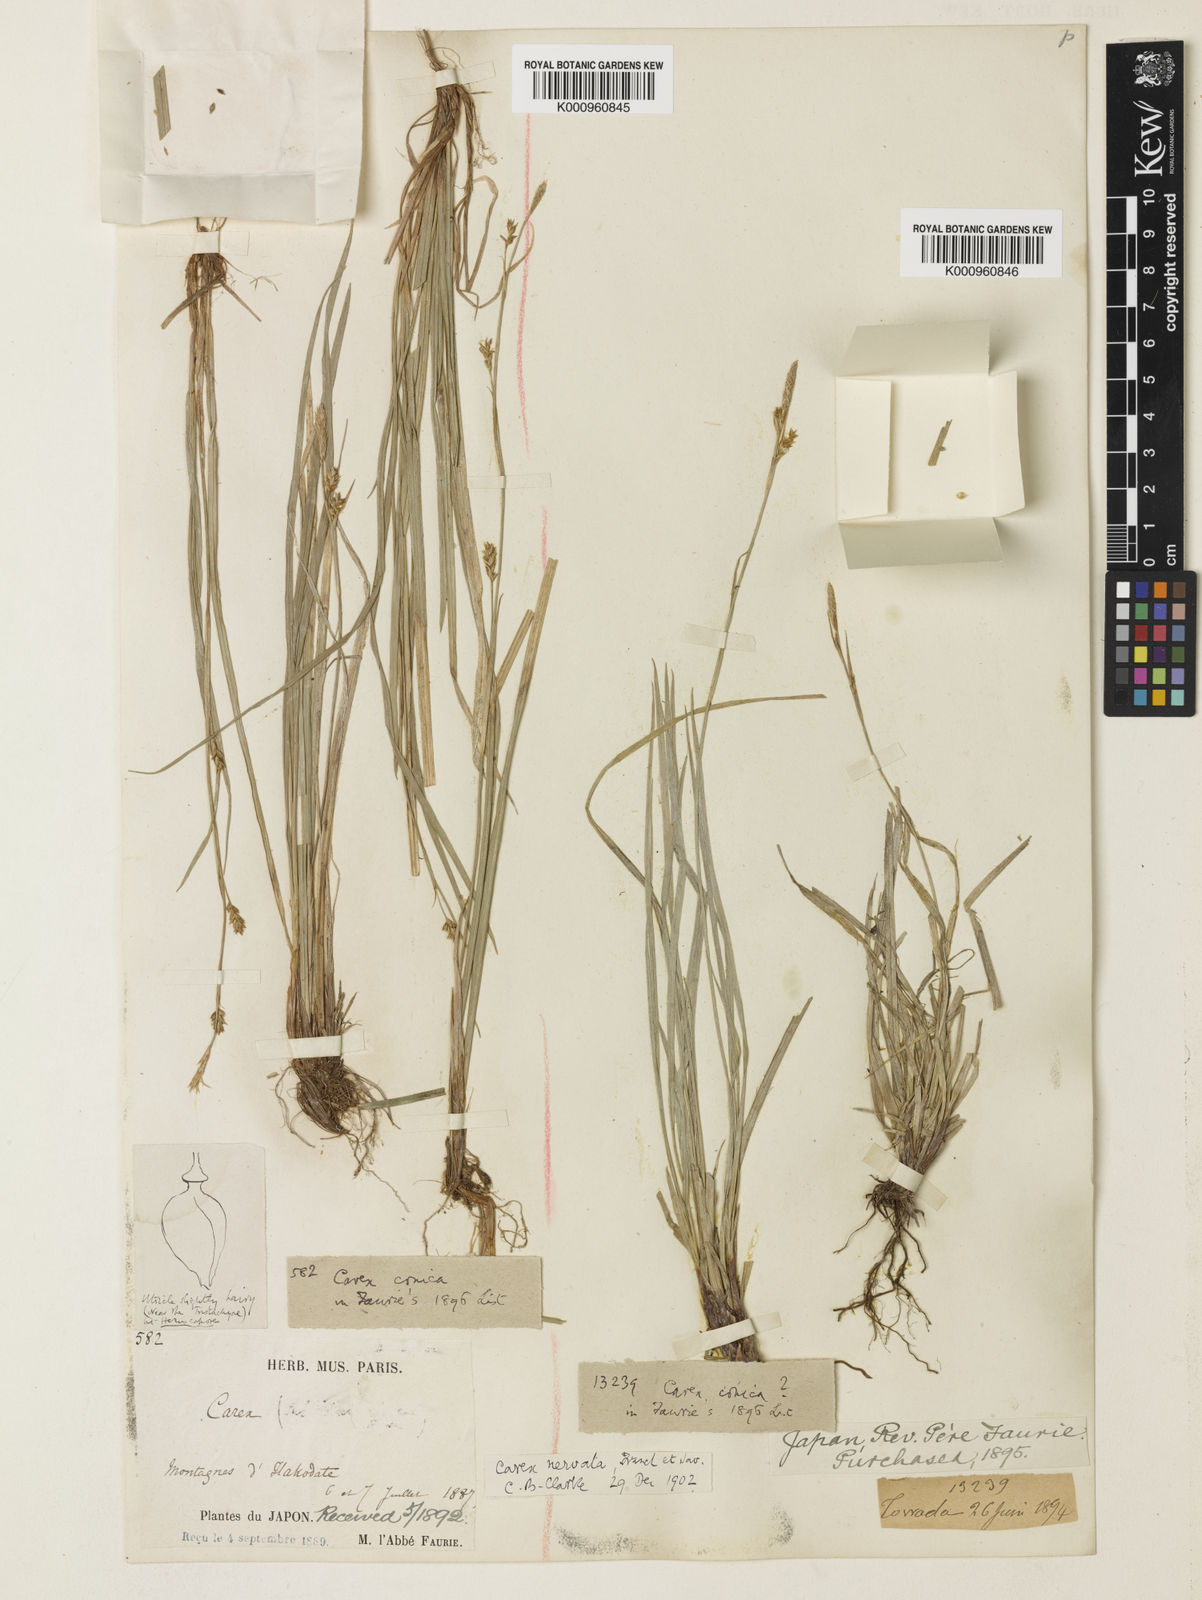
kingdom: Plantae
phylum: Tracheophyta
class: Liliopsida
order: Poales
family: Cyperaceae
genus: Carex
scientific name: Carex conica
